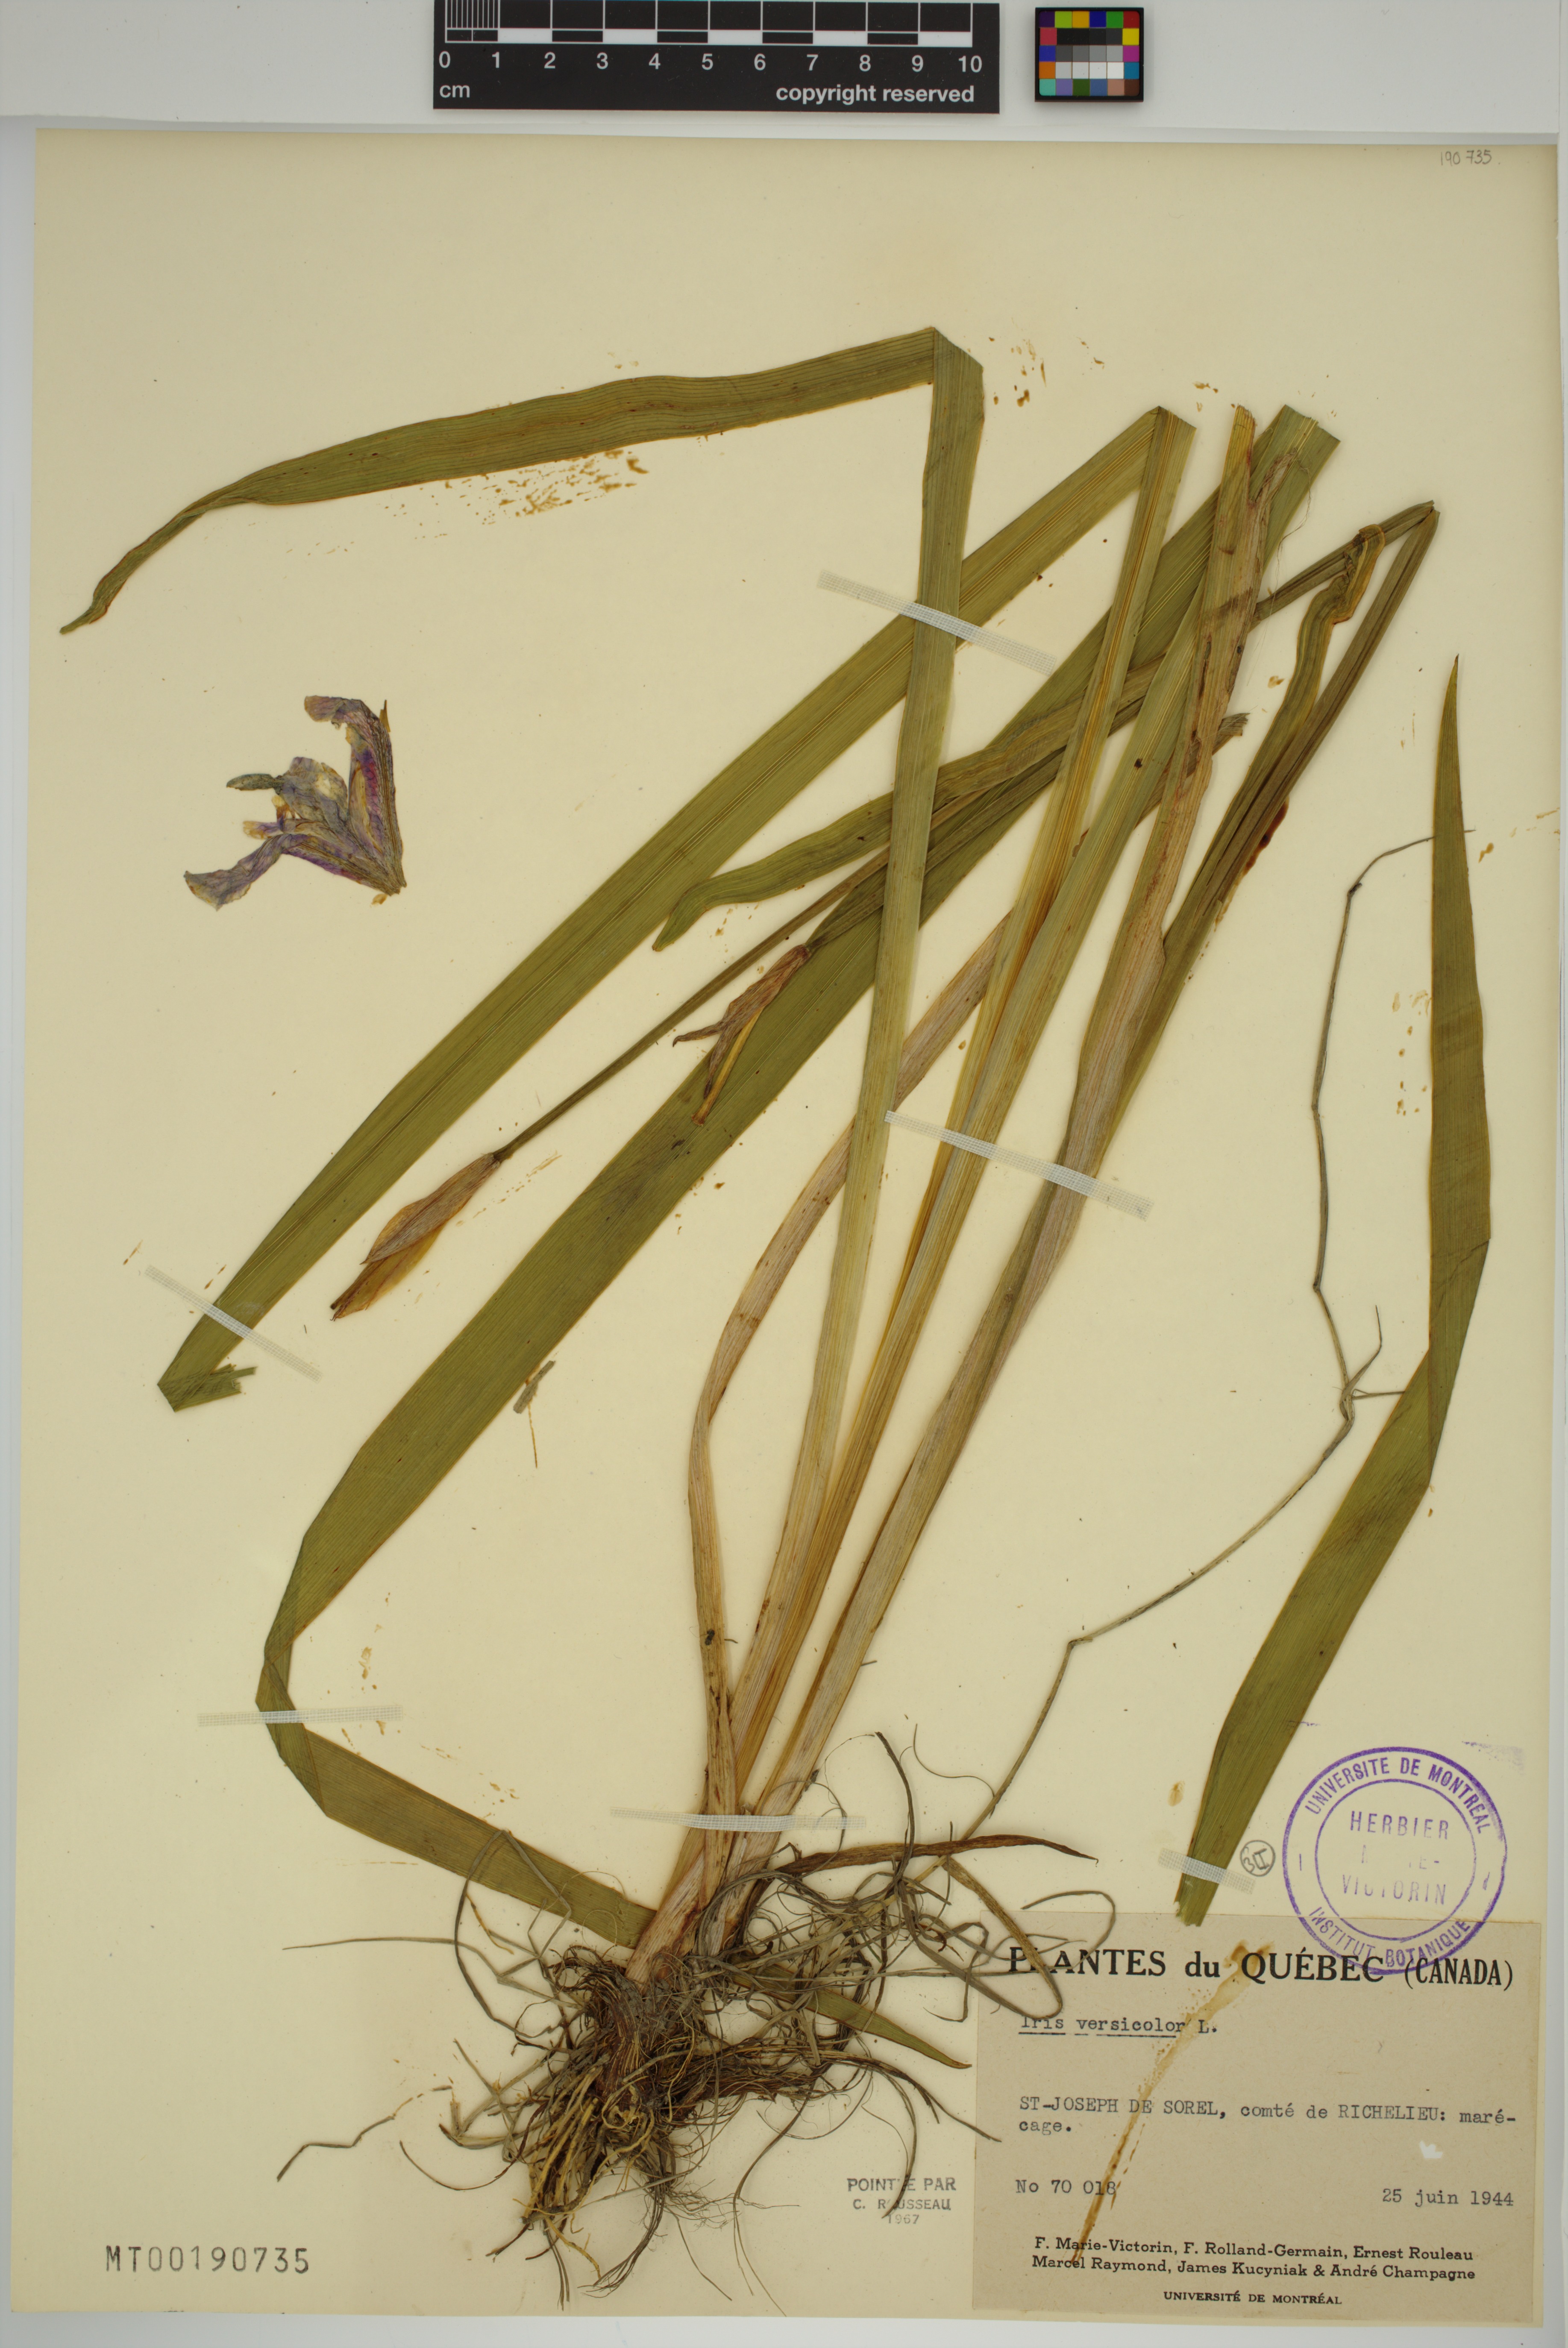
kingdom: Plantae
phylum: Tracheophyta
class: Liliopsida
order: Asparagales
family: Iridaceae
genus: Iris
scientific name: Iris versicolor
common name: Purple iris
